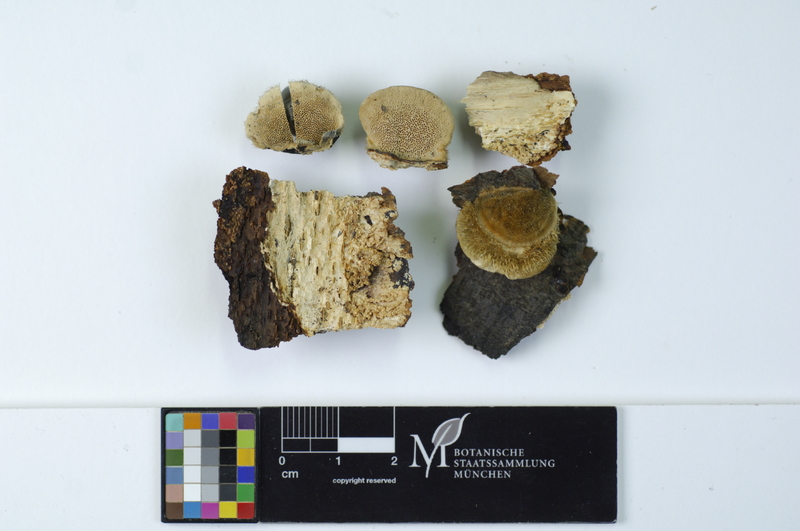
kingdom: Fungi
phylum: Basidiomycota
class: Agaricomycetes
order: Polyporales
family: Polyporaceae
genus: Trametes
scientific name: Trametes hirsuta
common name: Hairy bracket
